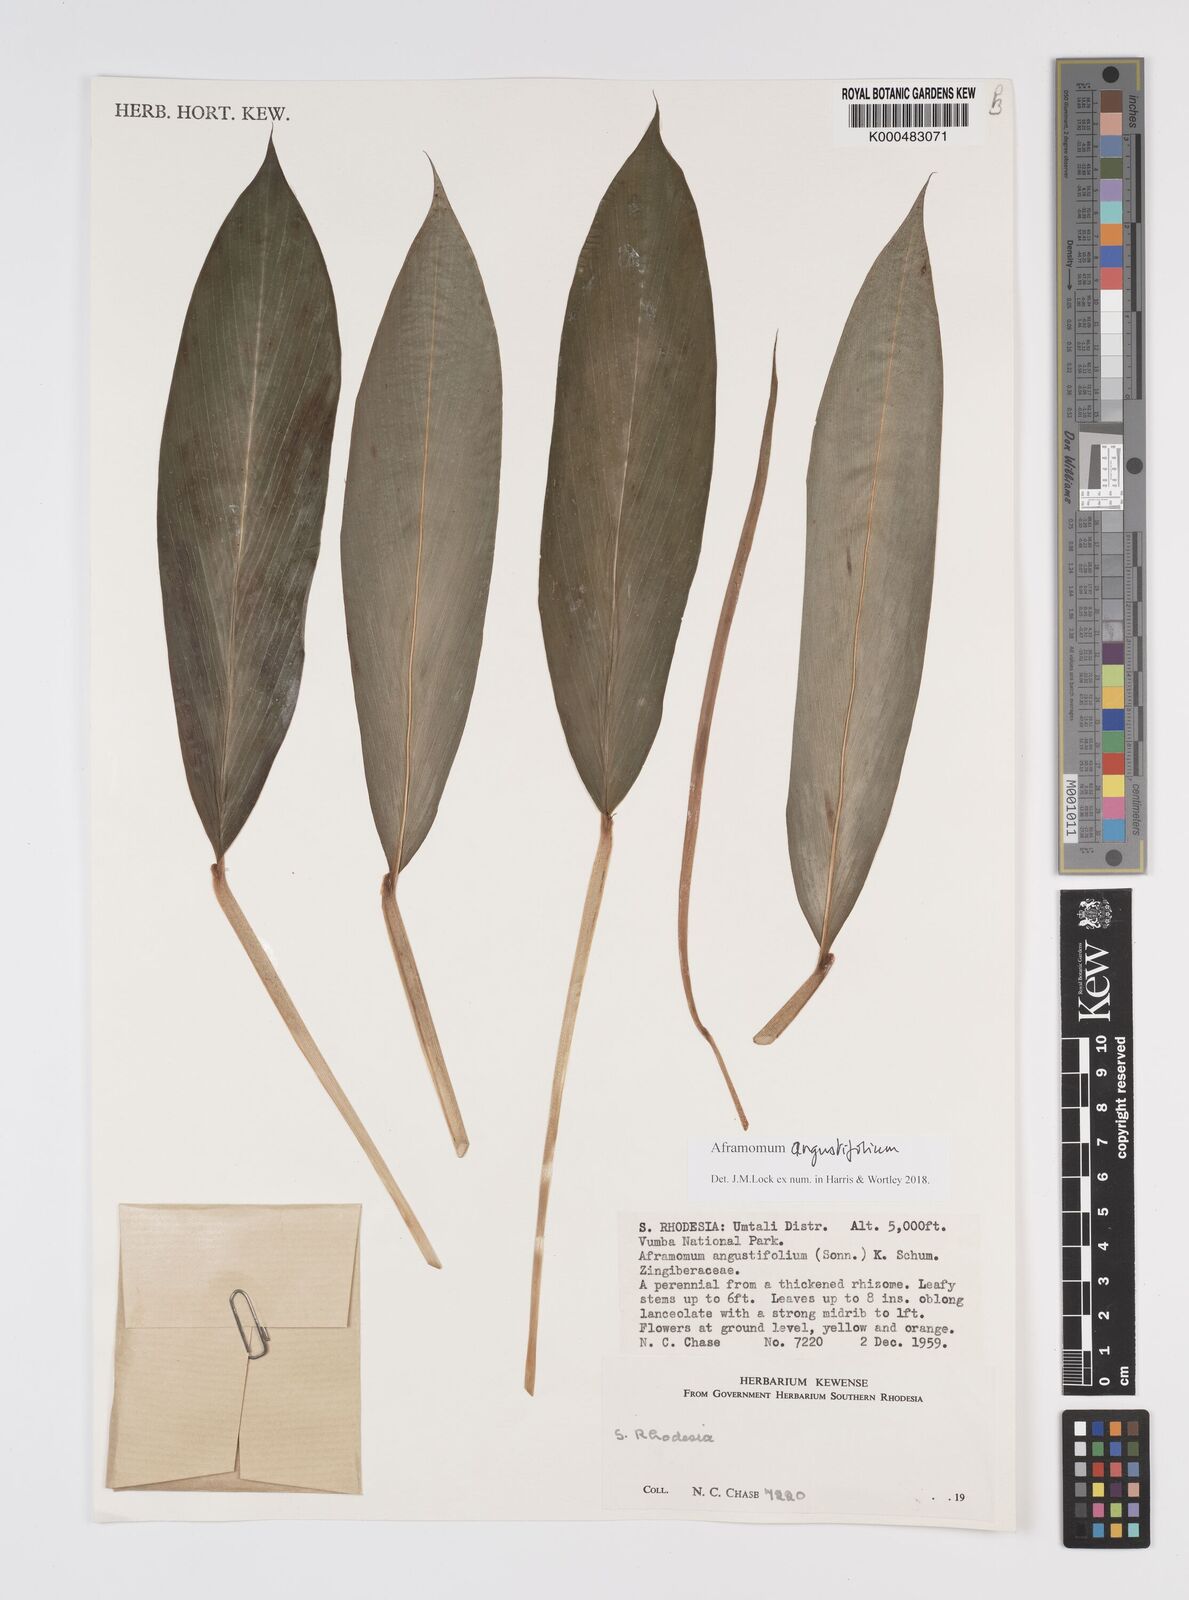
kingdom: Plantae
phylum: Tracheophyta
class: Liliopsida
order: Zingiberales
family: Zingiberaceae
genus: Aframomum
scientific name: Aframomum angustifolium
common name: Guinea grains
